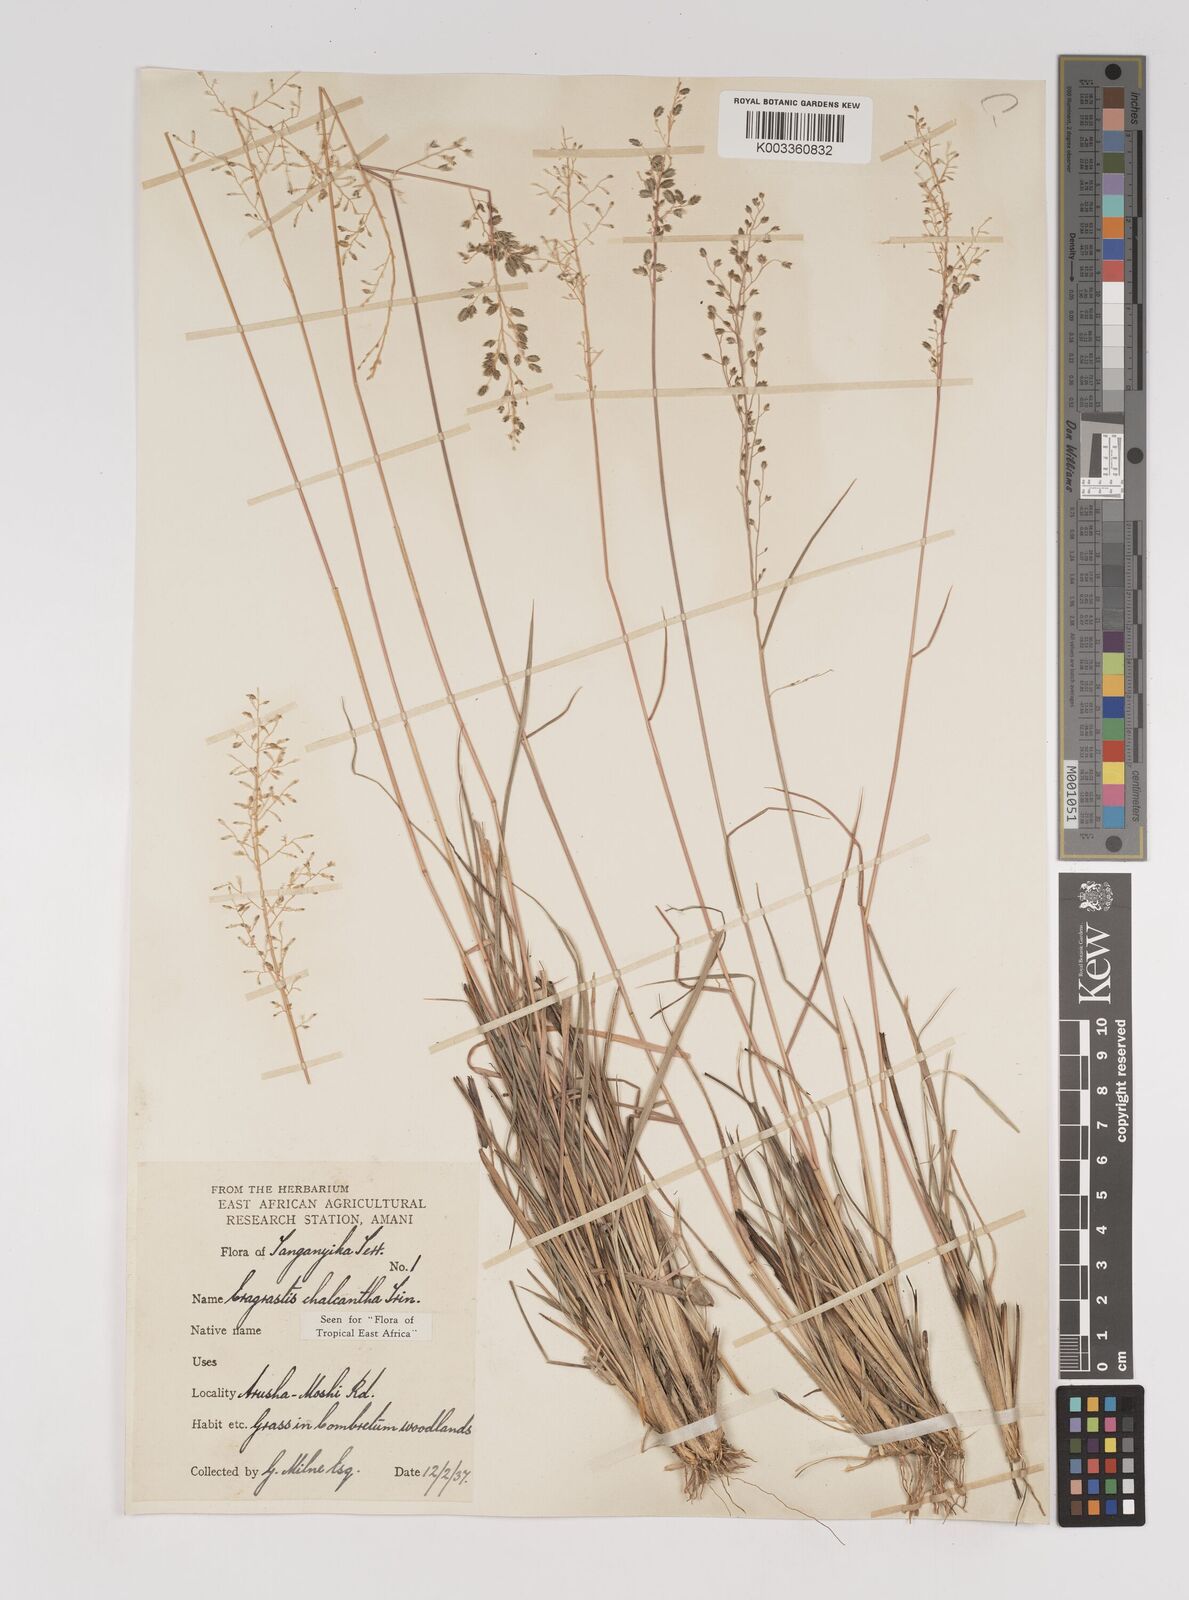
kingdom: Plantae
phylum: Tracheophyta
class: Liliopsida
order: Poales
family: Poaceae
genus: Eragrostis
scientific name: Eragrostis racemosa
